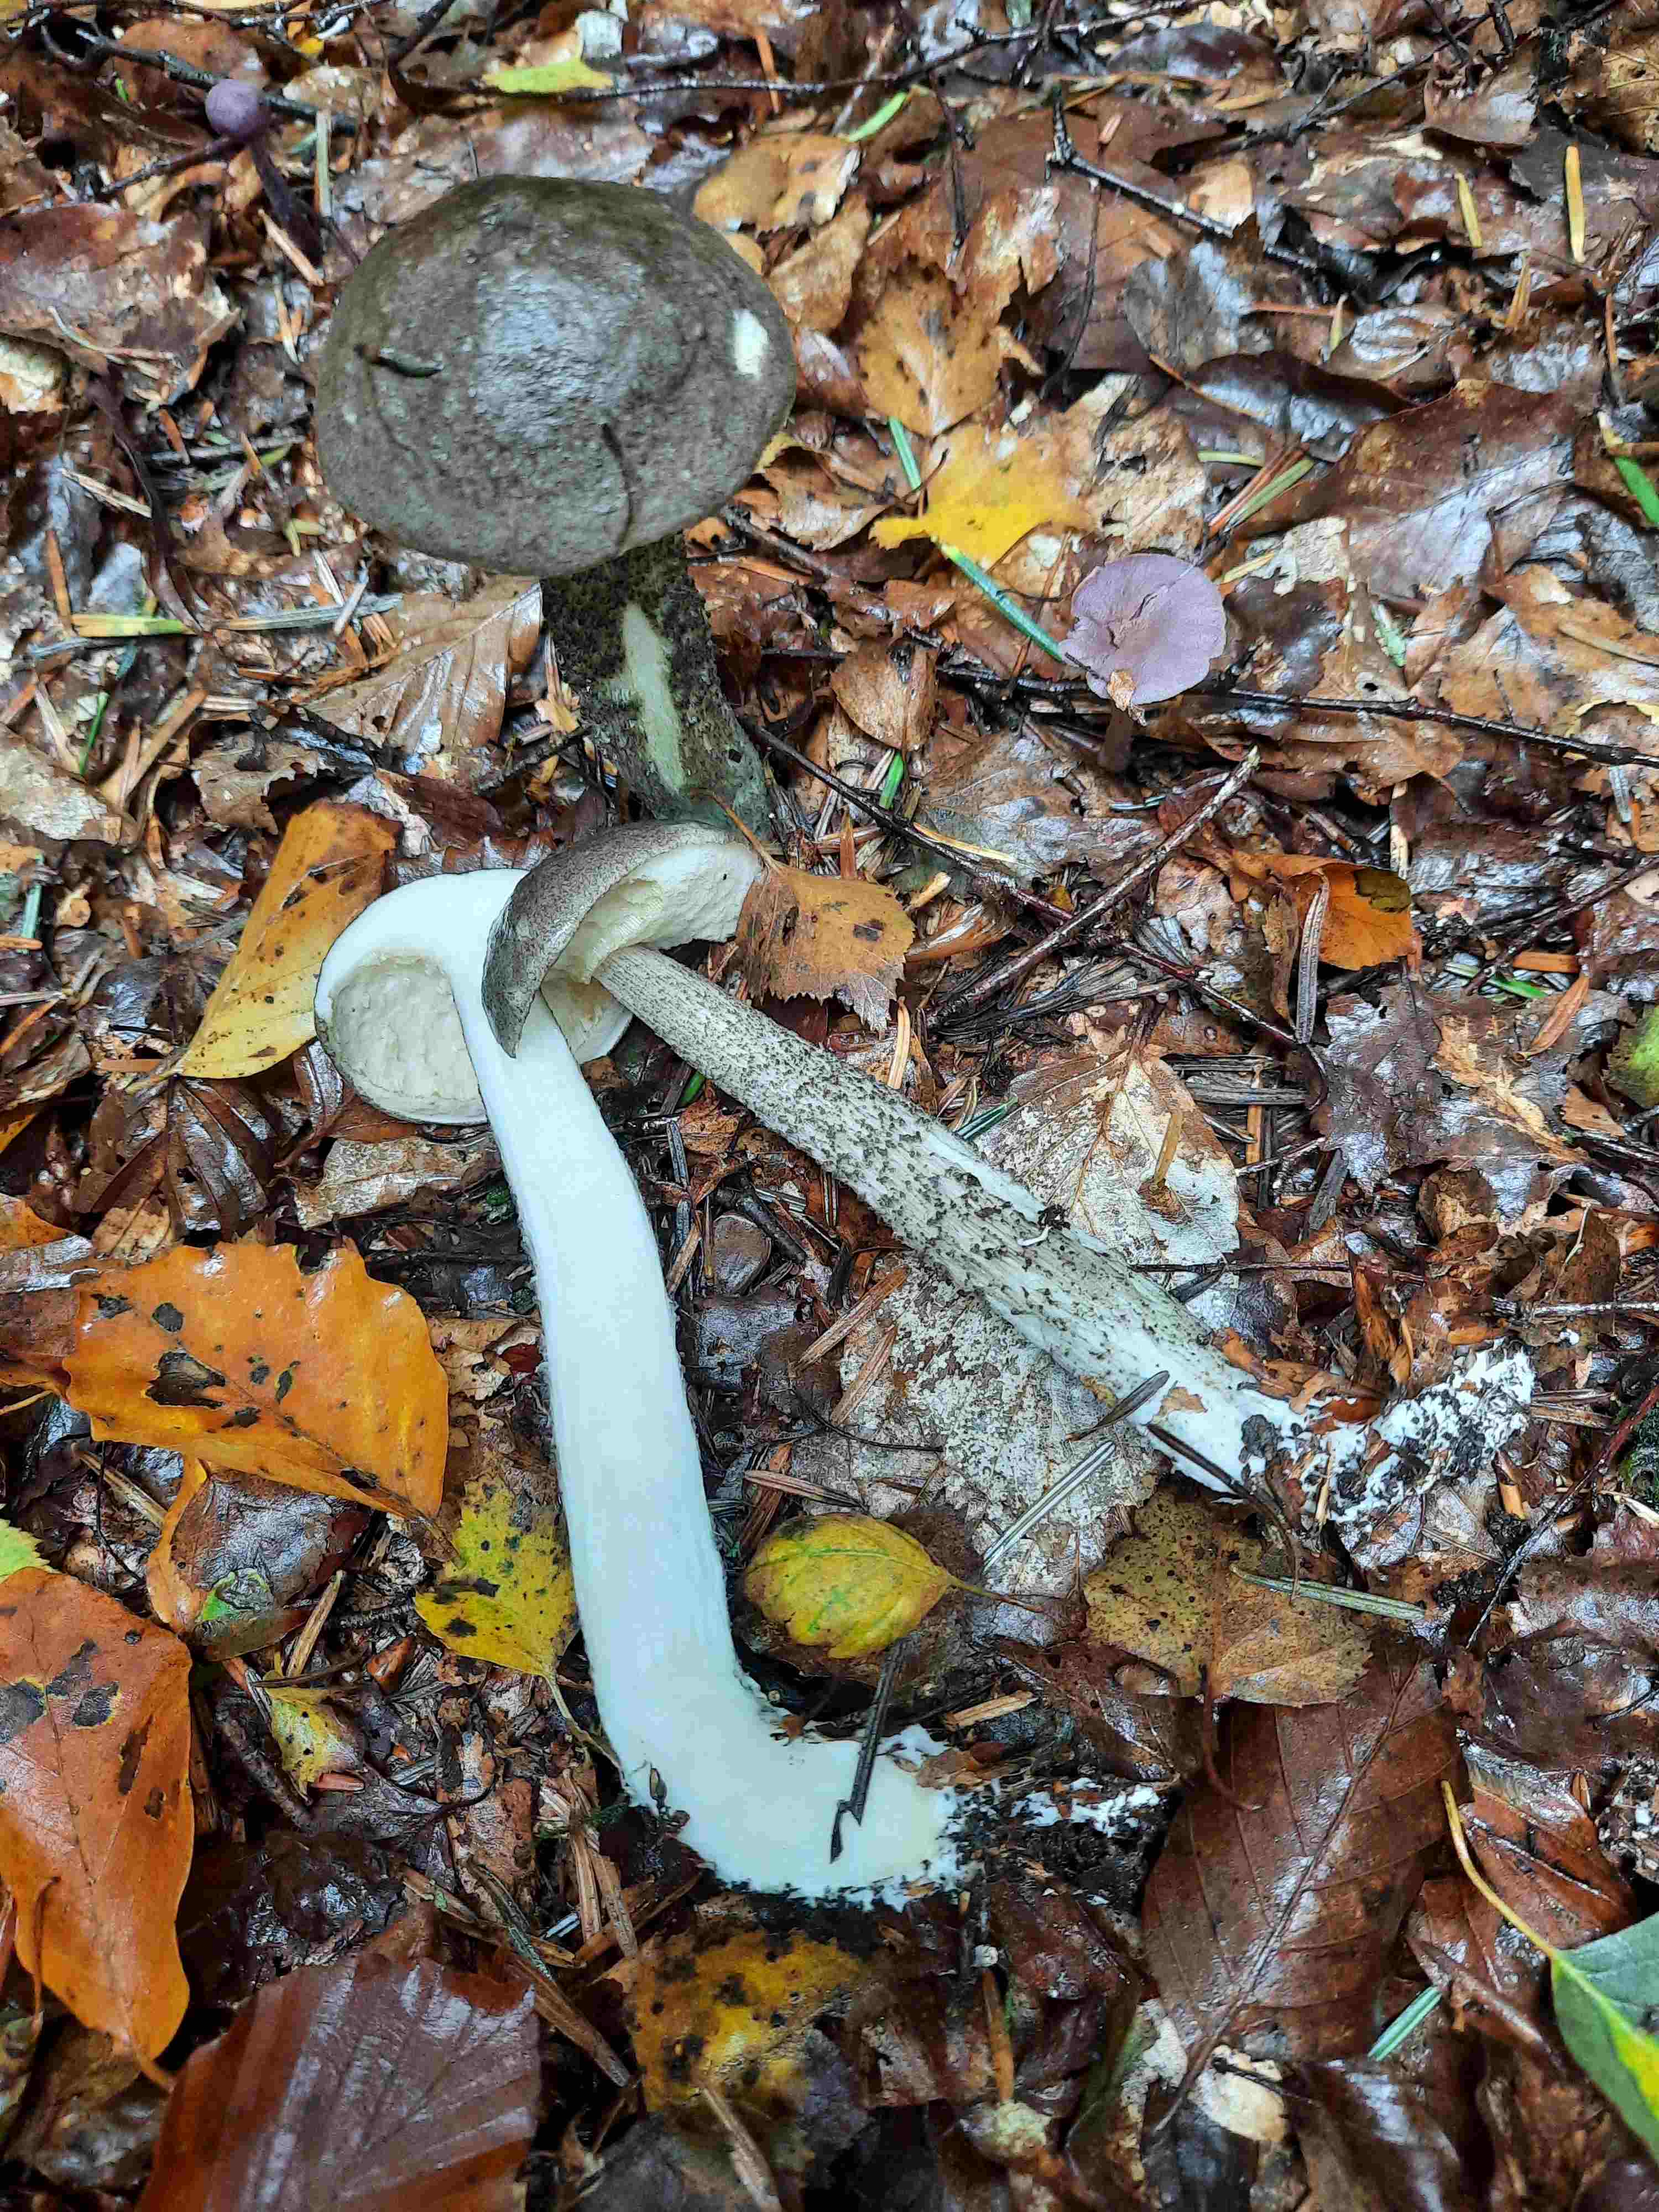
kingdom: Fungi
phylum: Basidiomycota
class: Agaricomycetes
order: Boletales
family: Boletaceae
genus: Leccinum
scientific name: Leccinum variicolor
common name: flammet skælrørhat
